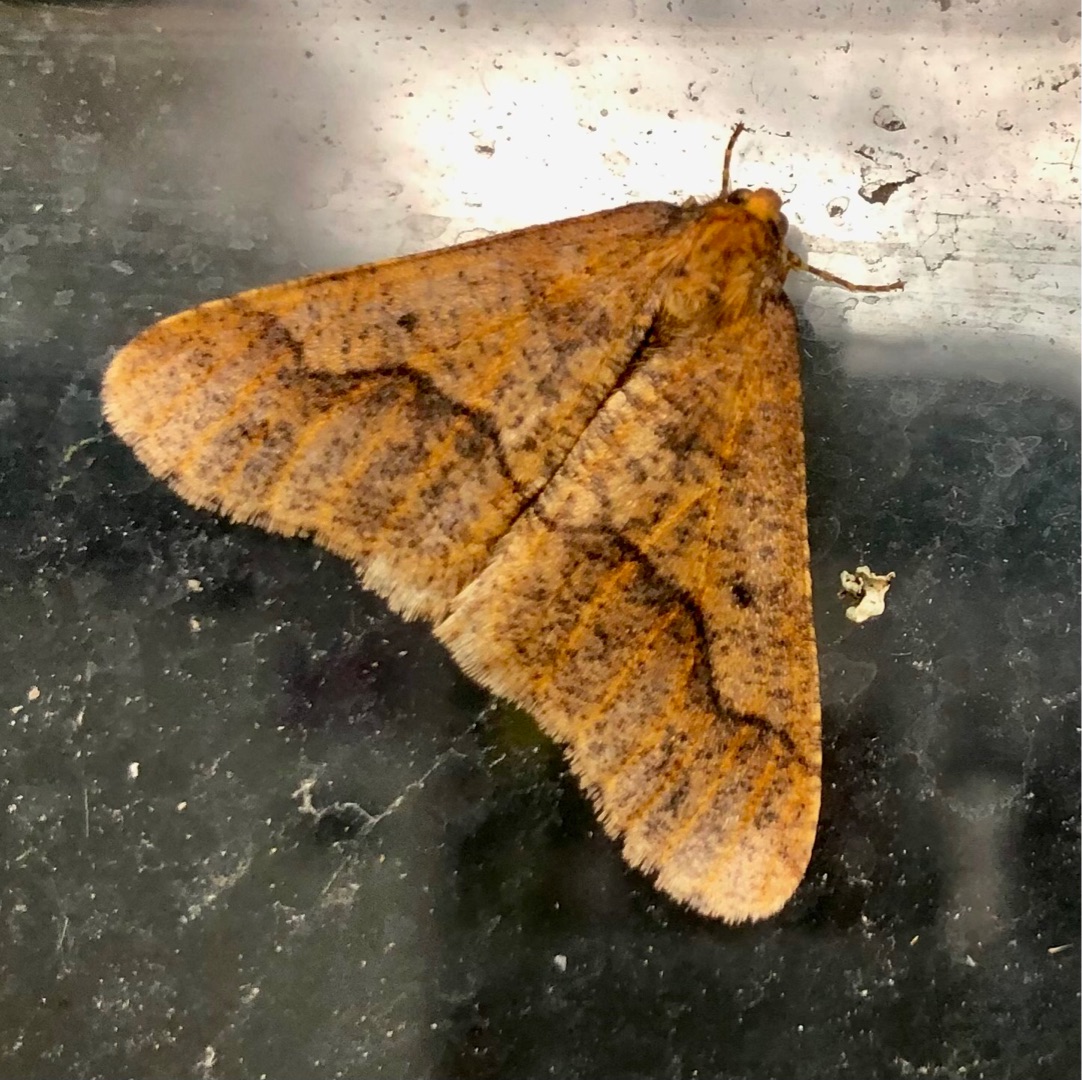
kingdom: Animalia
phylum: Arthropoda
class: Insecta
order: Lepidoptera
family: Geometridae
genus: Erannis
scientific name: Erannis defoliaria
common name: Stor frostmåler
